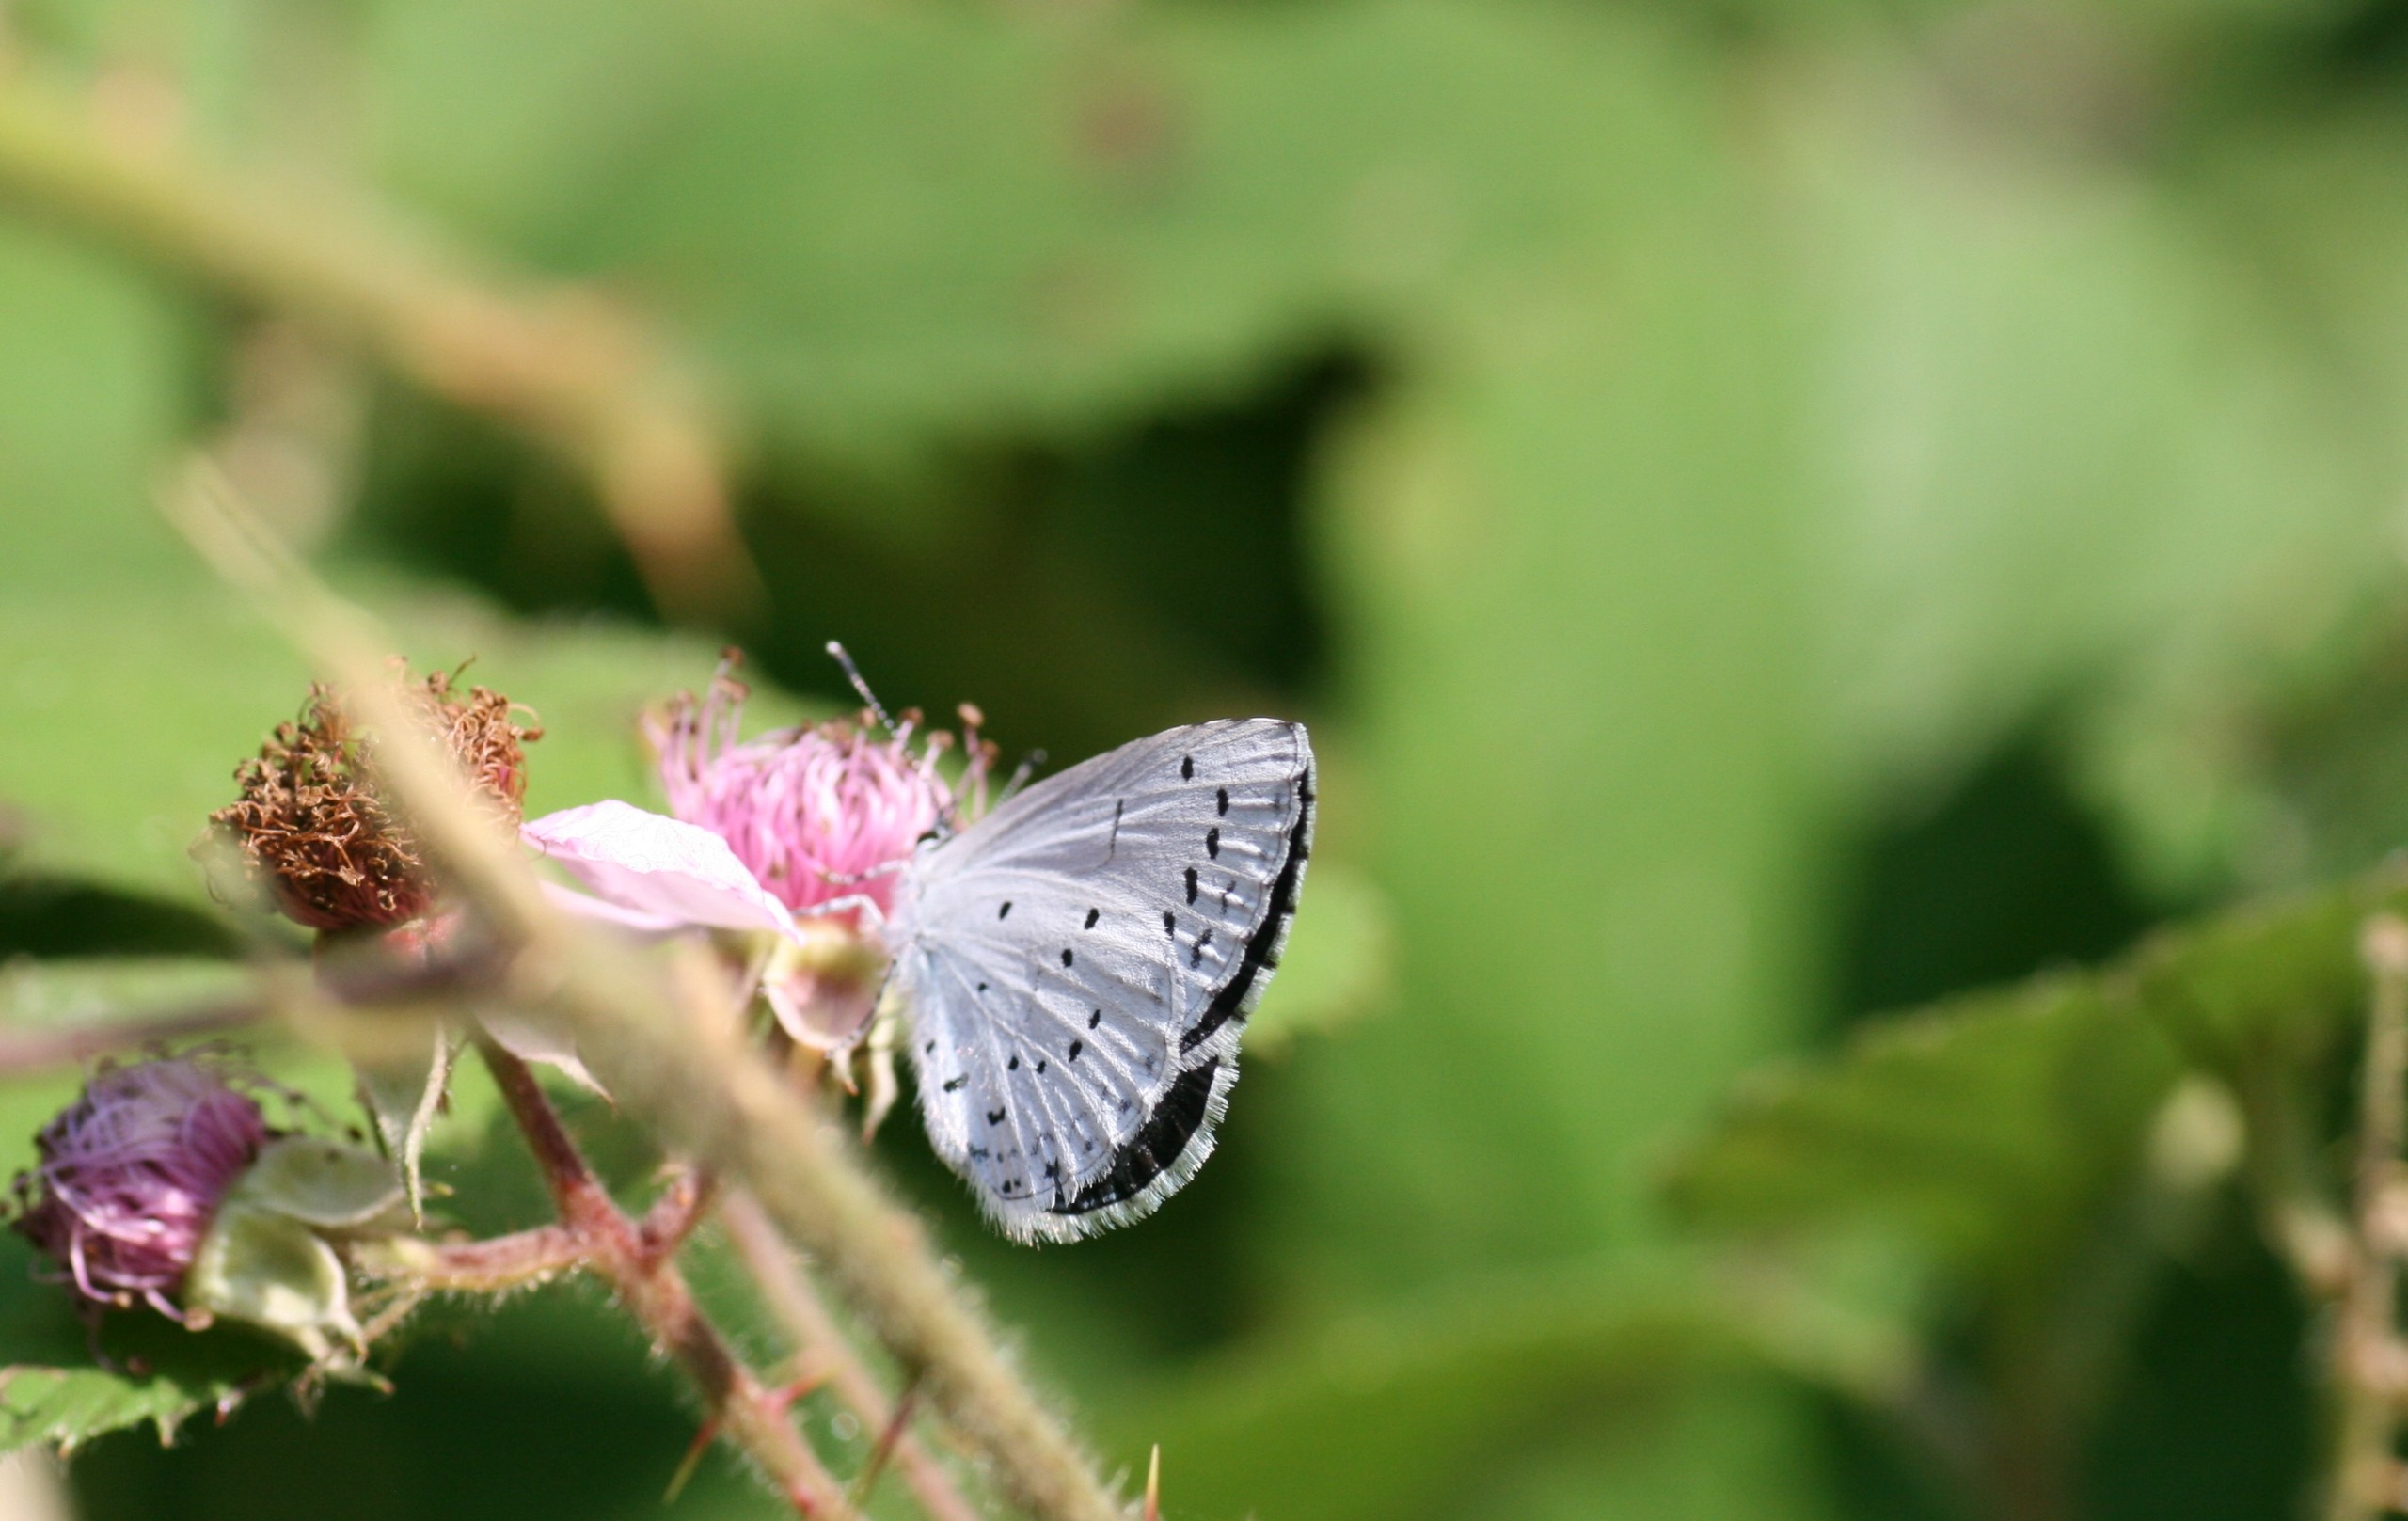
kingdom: Animalia
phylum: Arthropoda
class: Insecta
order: Lepidoptera
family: Lycaenidae
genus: Celastrina
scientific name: Celastrina argiolus
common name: Skovblåfugl
